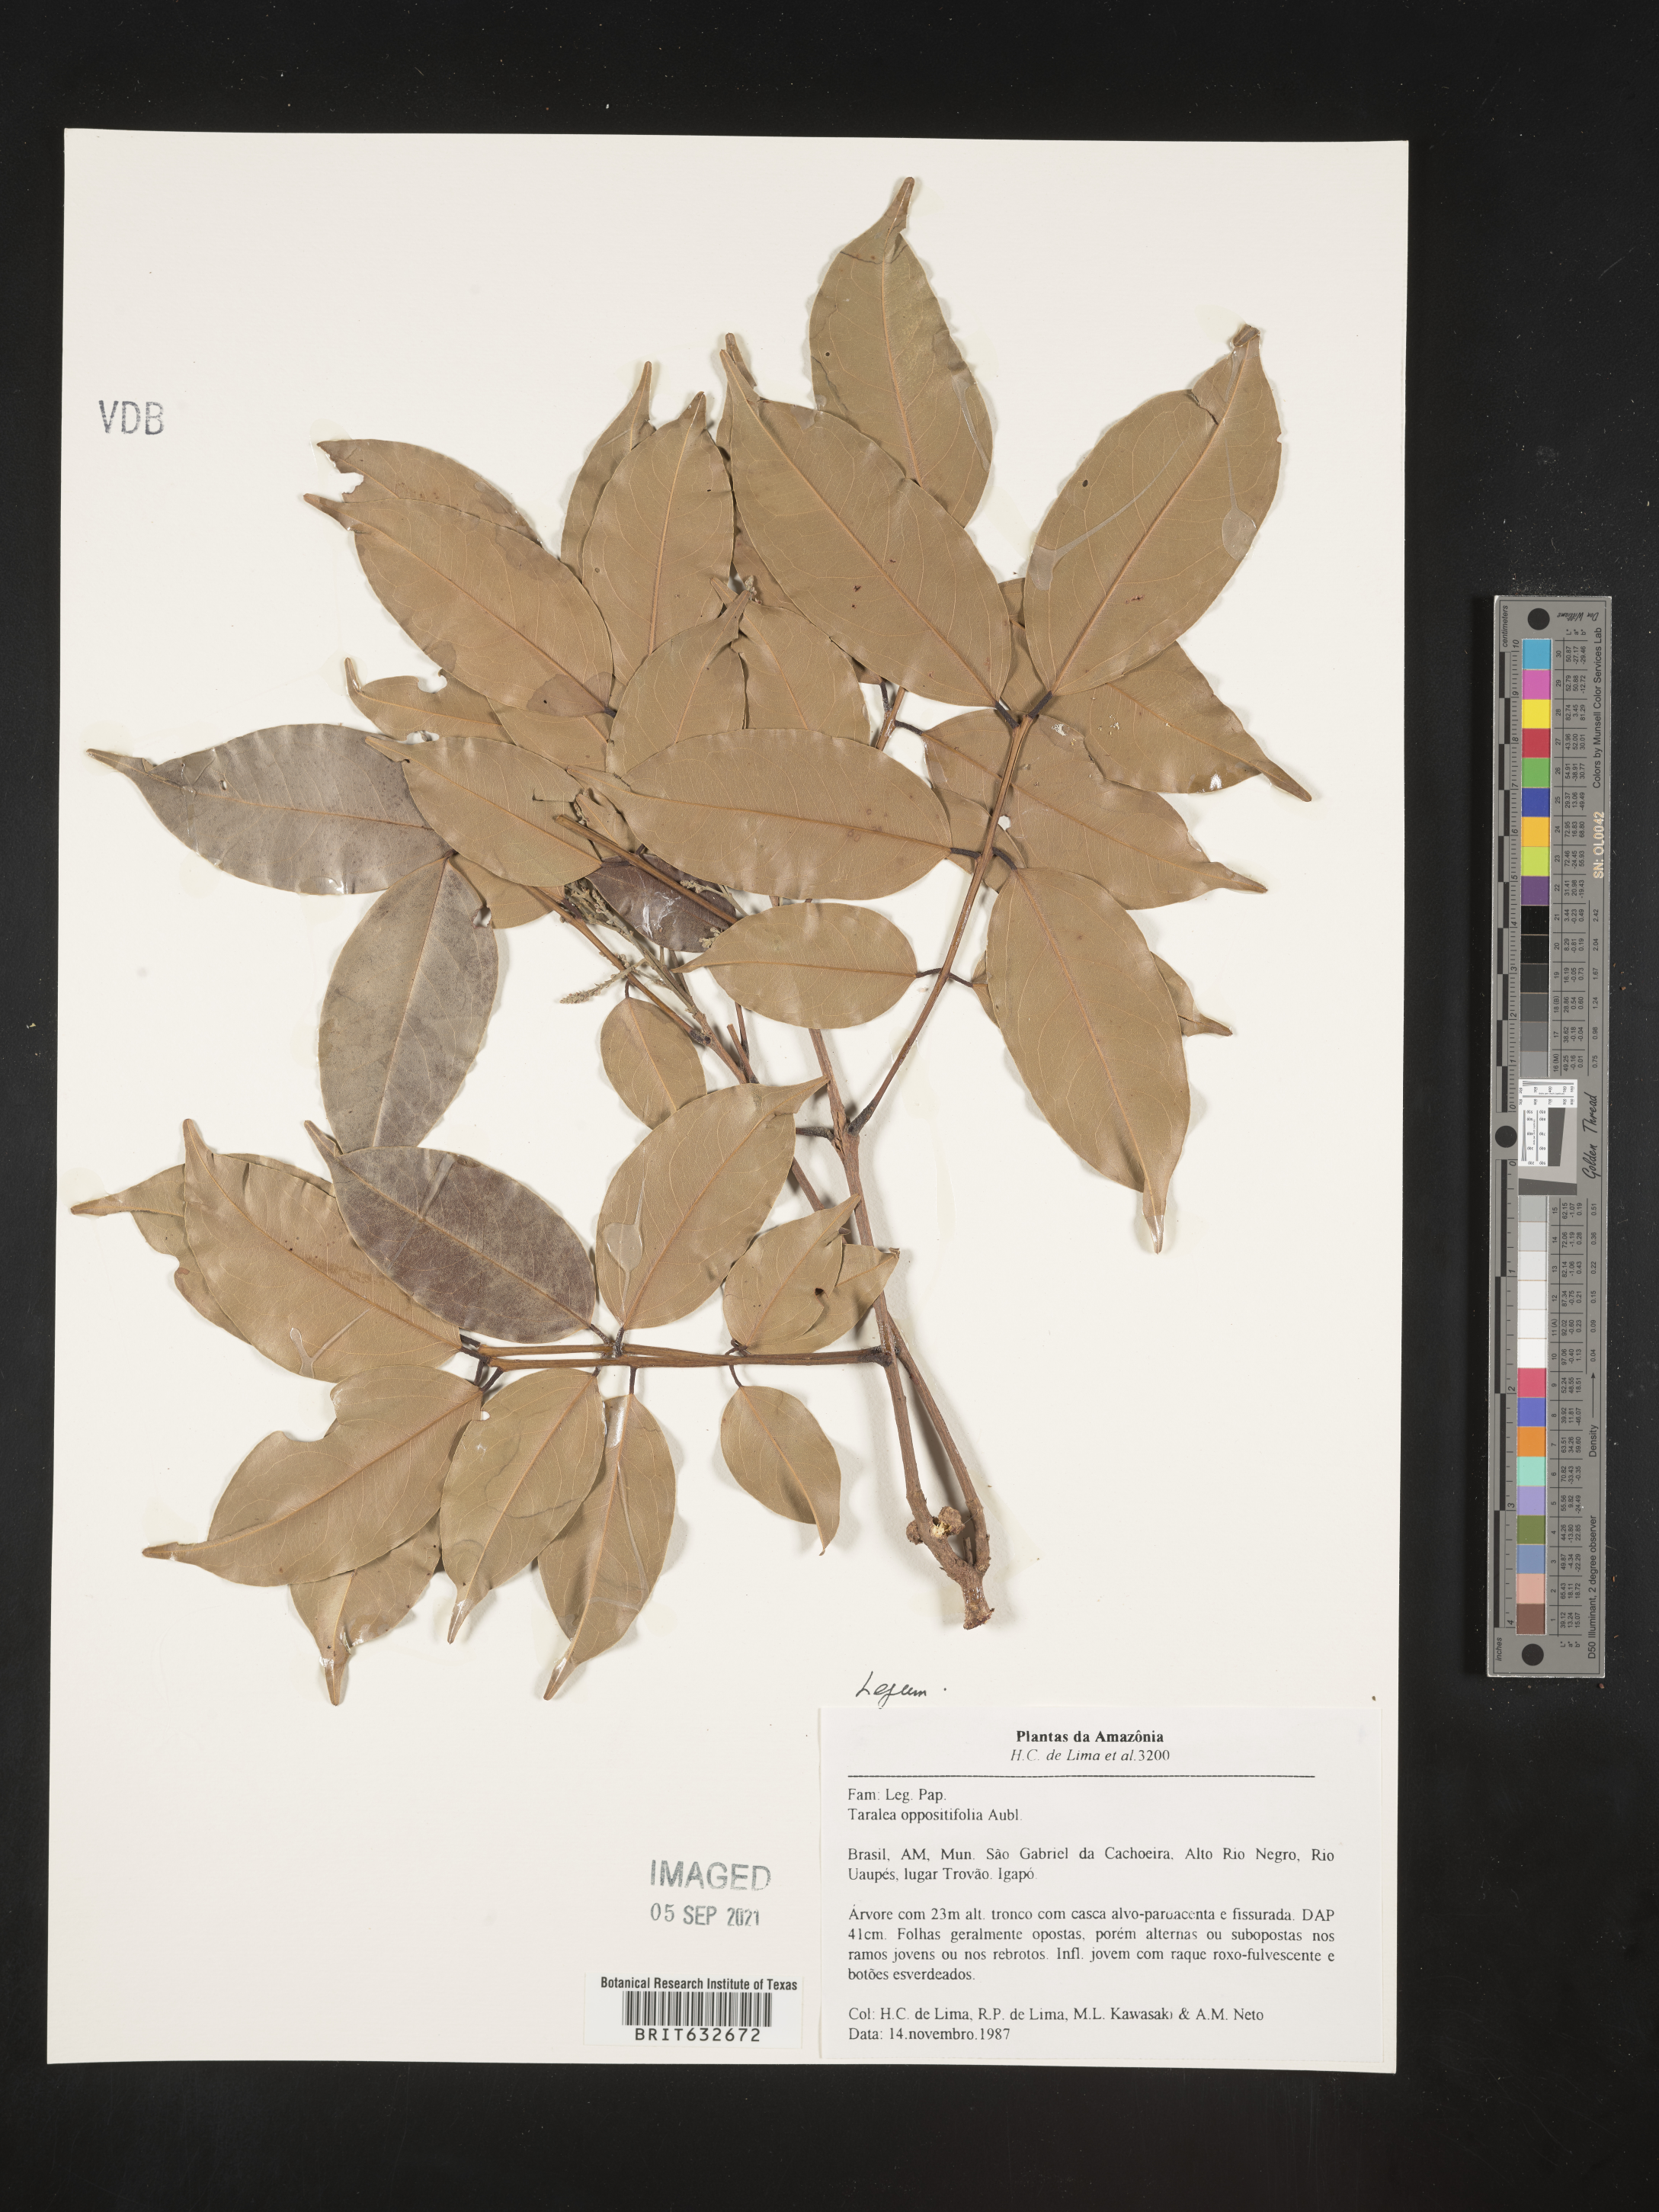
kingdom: Plantae
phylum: Tracheophyta
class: Magnoliopsida
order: Fabales
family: Fabaceae
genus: Taralea
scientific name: Taralea oppositifolia
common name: Tonka
